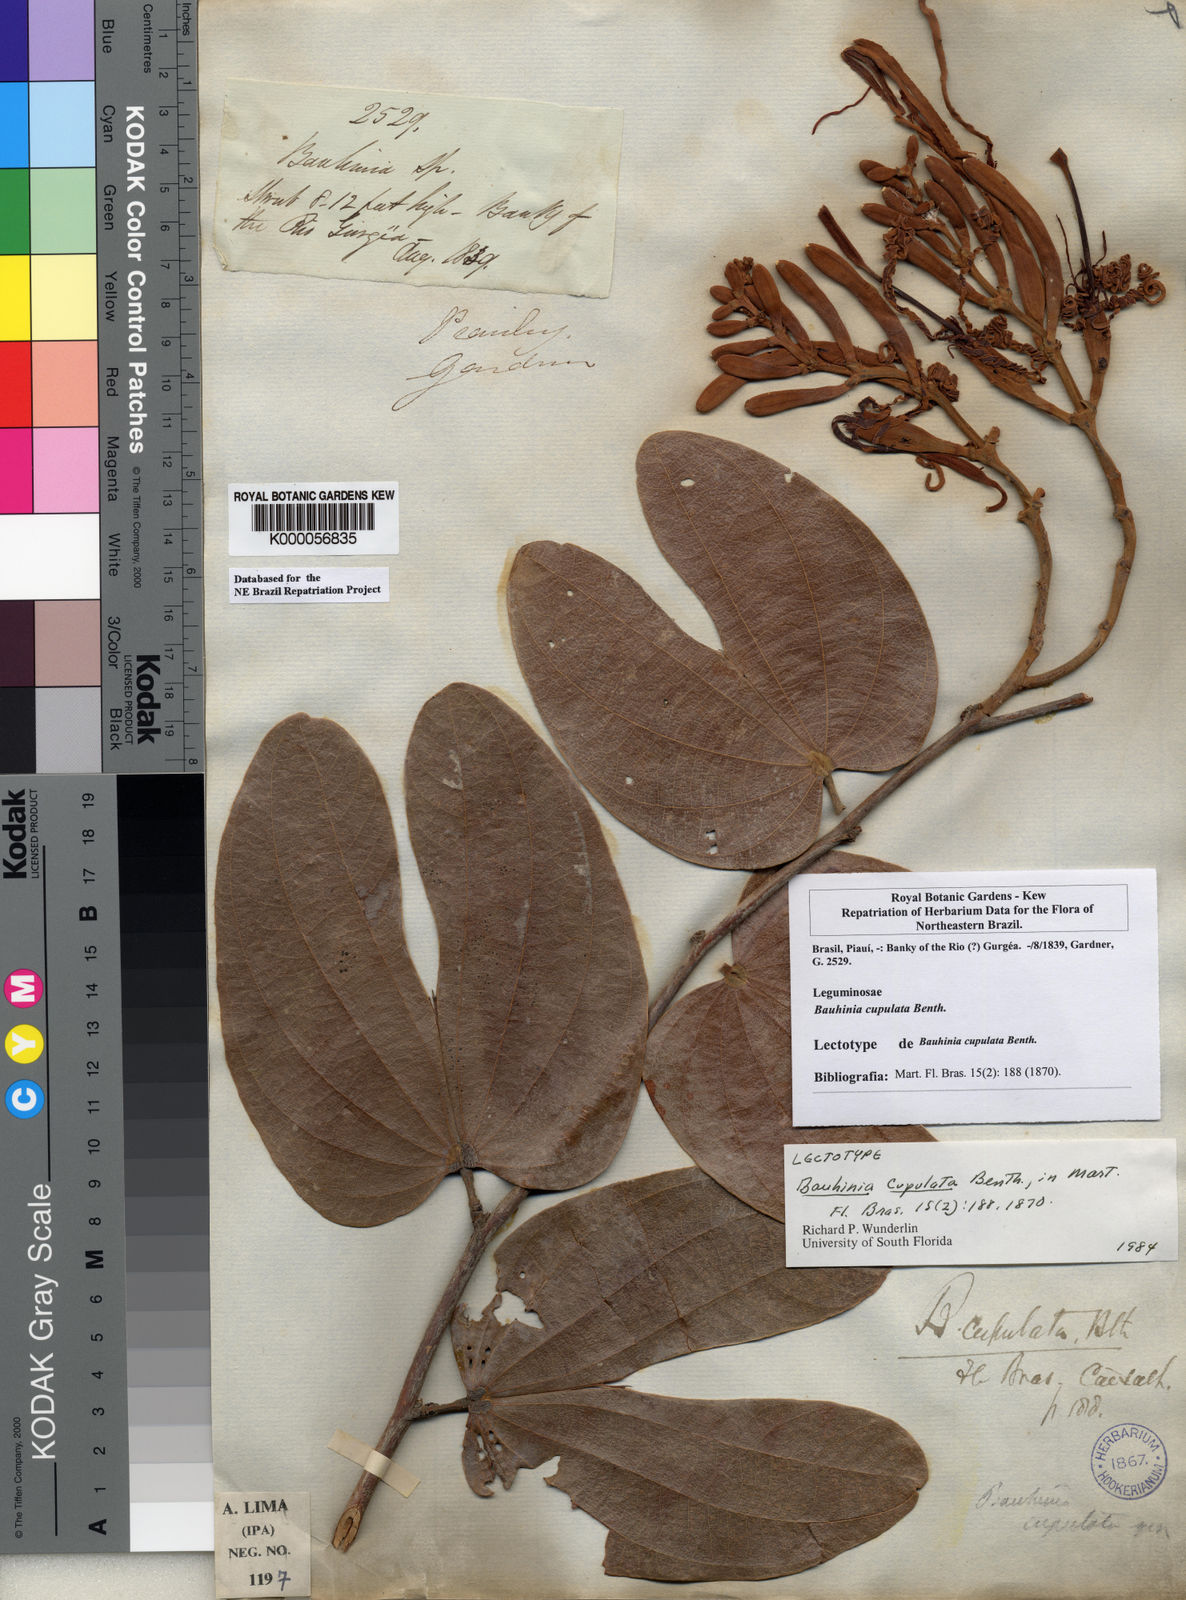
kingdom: Plantae
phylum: Tracheophyta
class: Magnoliopsida
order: Fabales
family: Fabaceae
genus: Bauhinia
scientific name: Bauhinia cupulata
